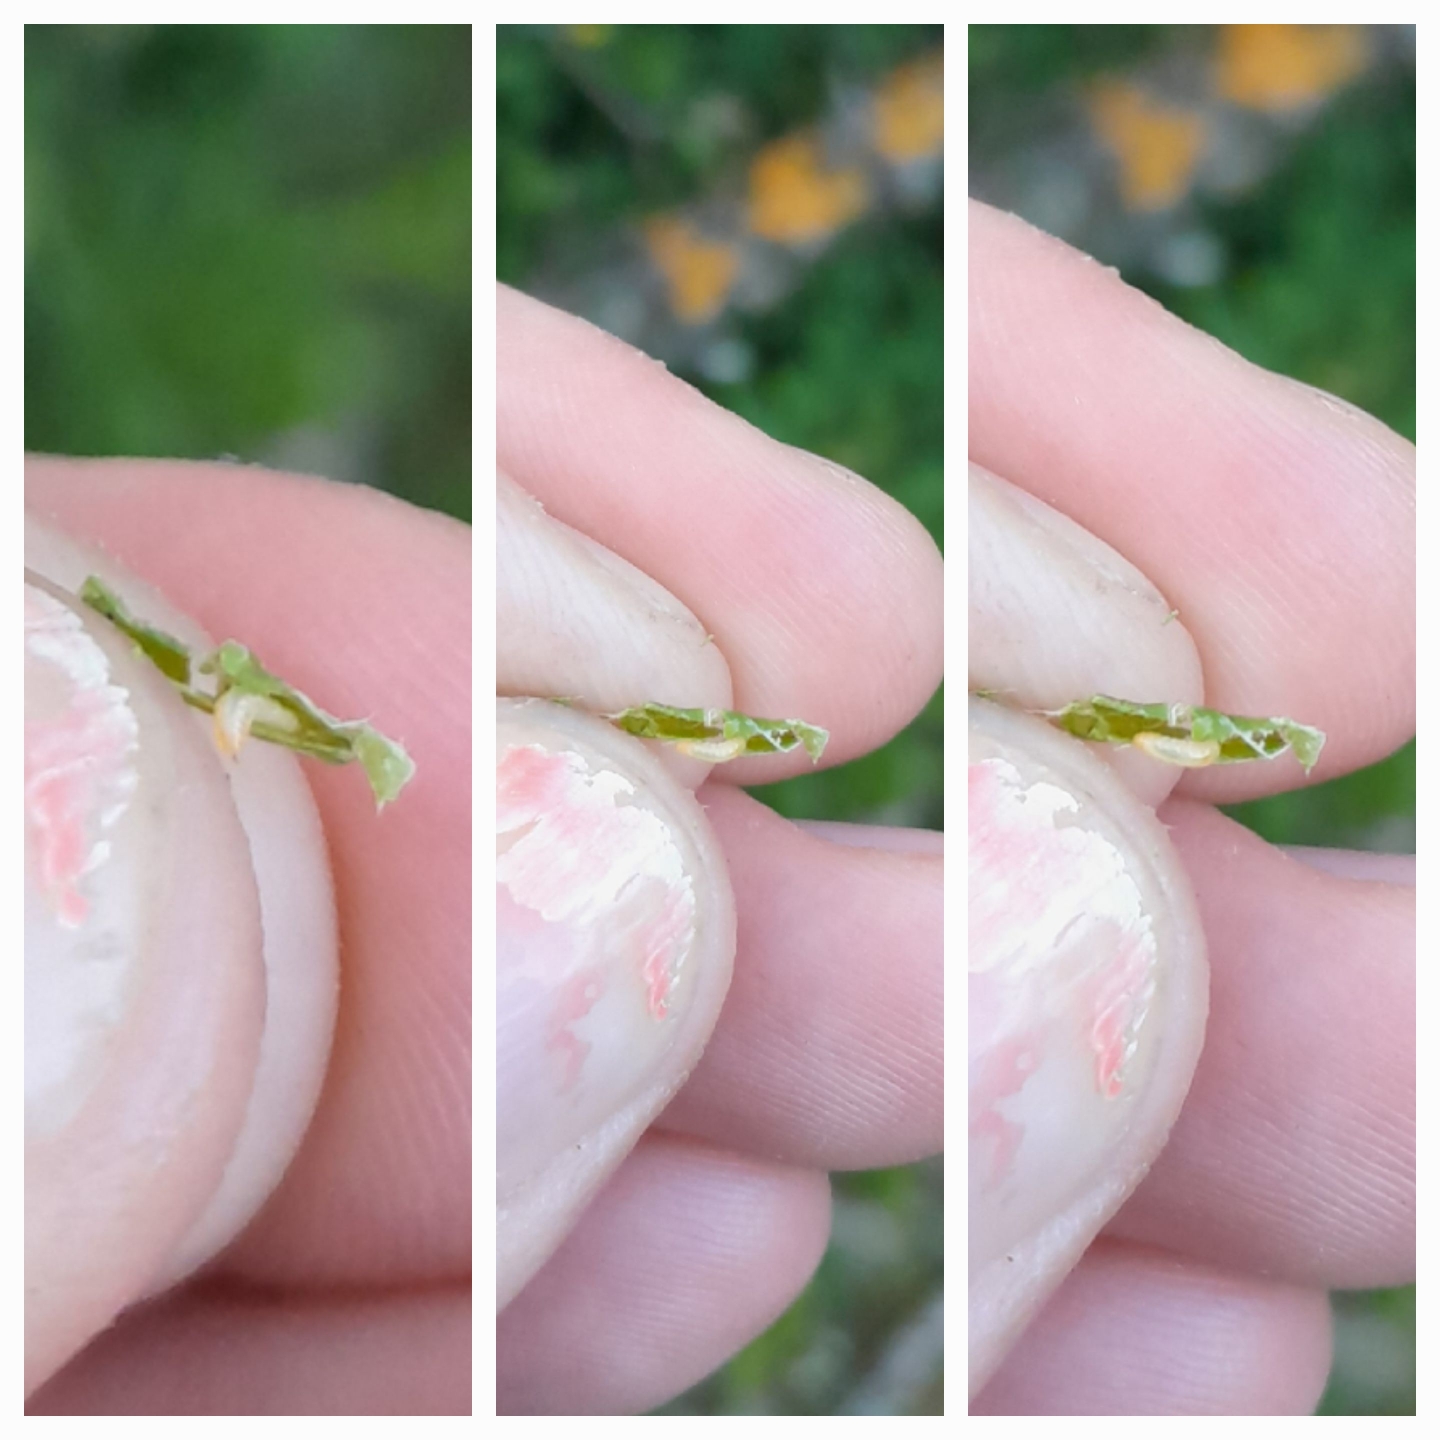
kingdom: Animalia
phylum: Arthropoda
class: Insecta
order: Diptera
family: Cecidomyiidae
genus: Macrodiplosis
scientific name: Macrodiplosis volvens
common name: Egerullegalmyg
